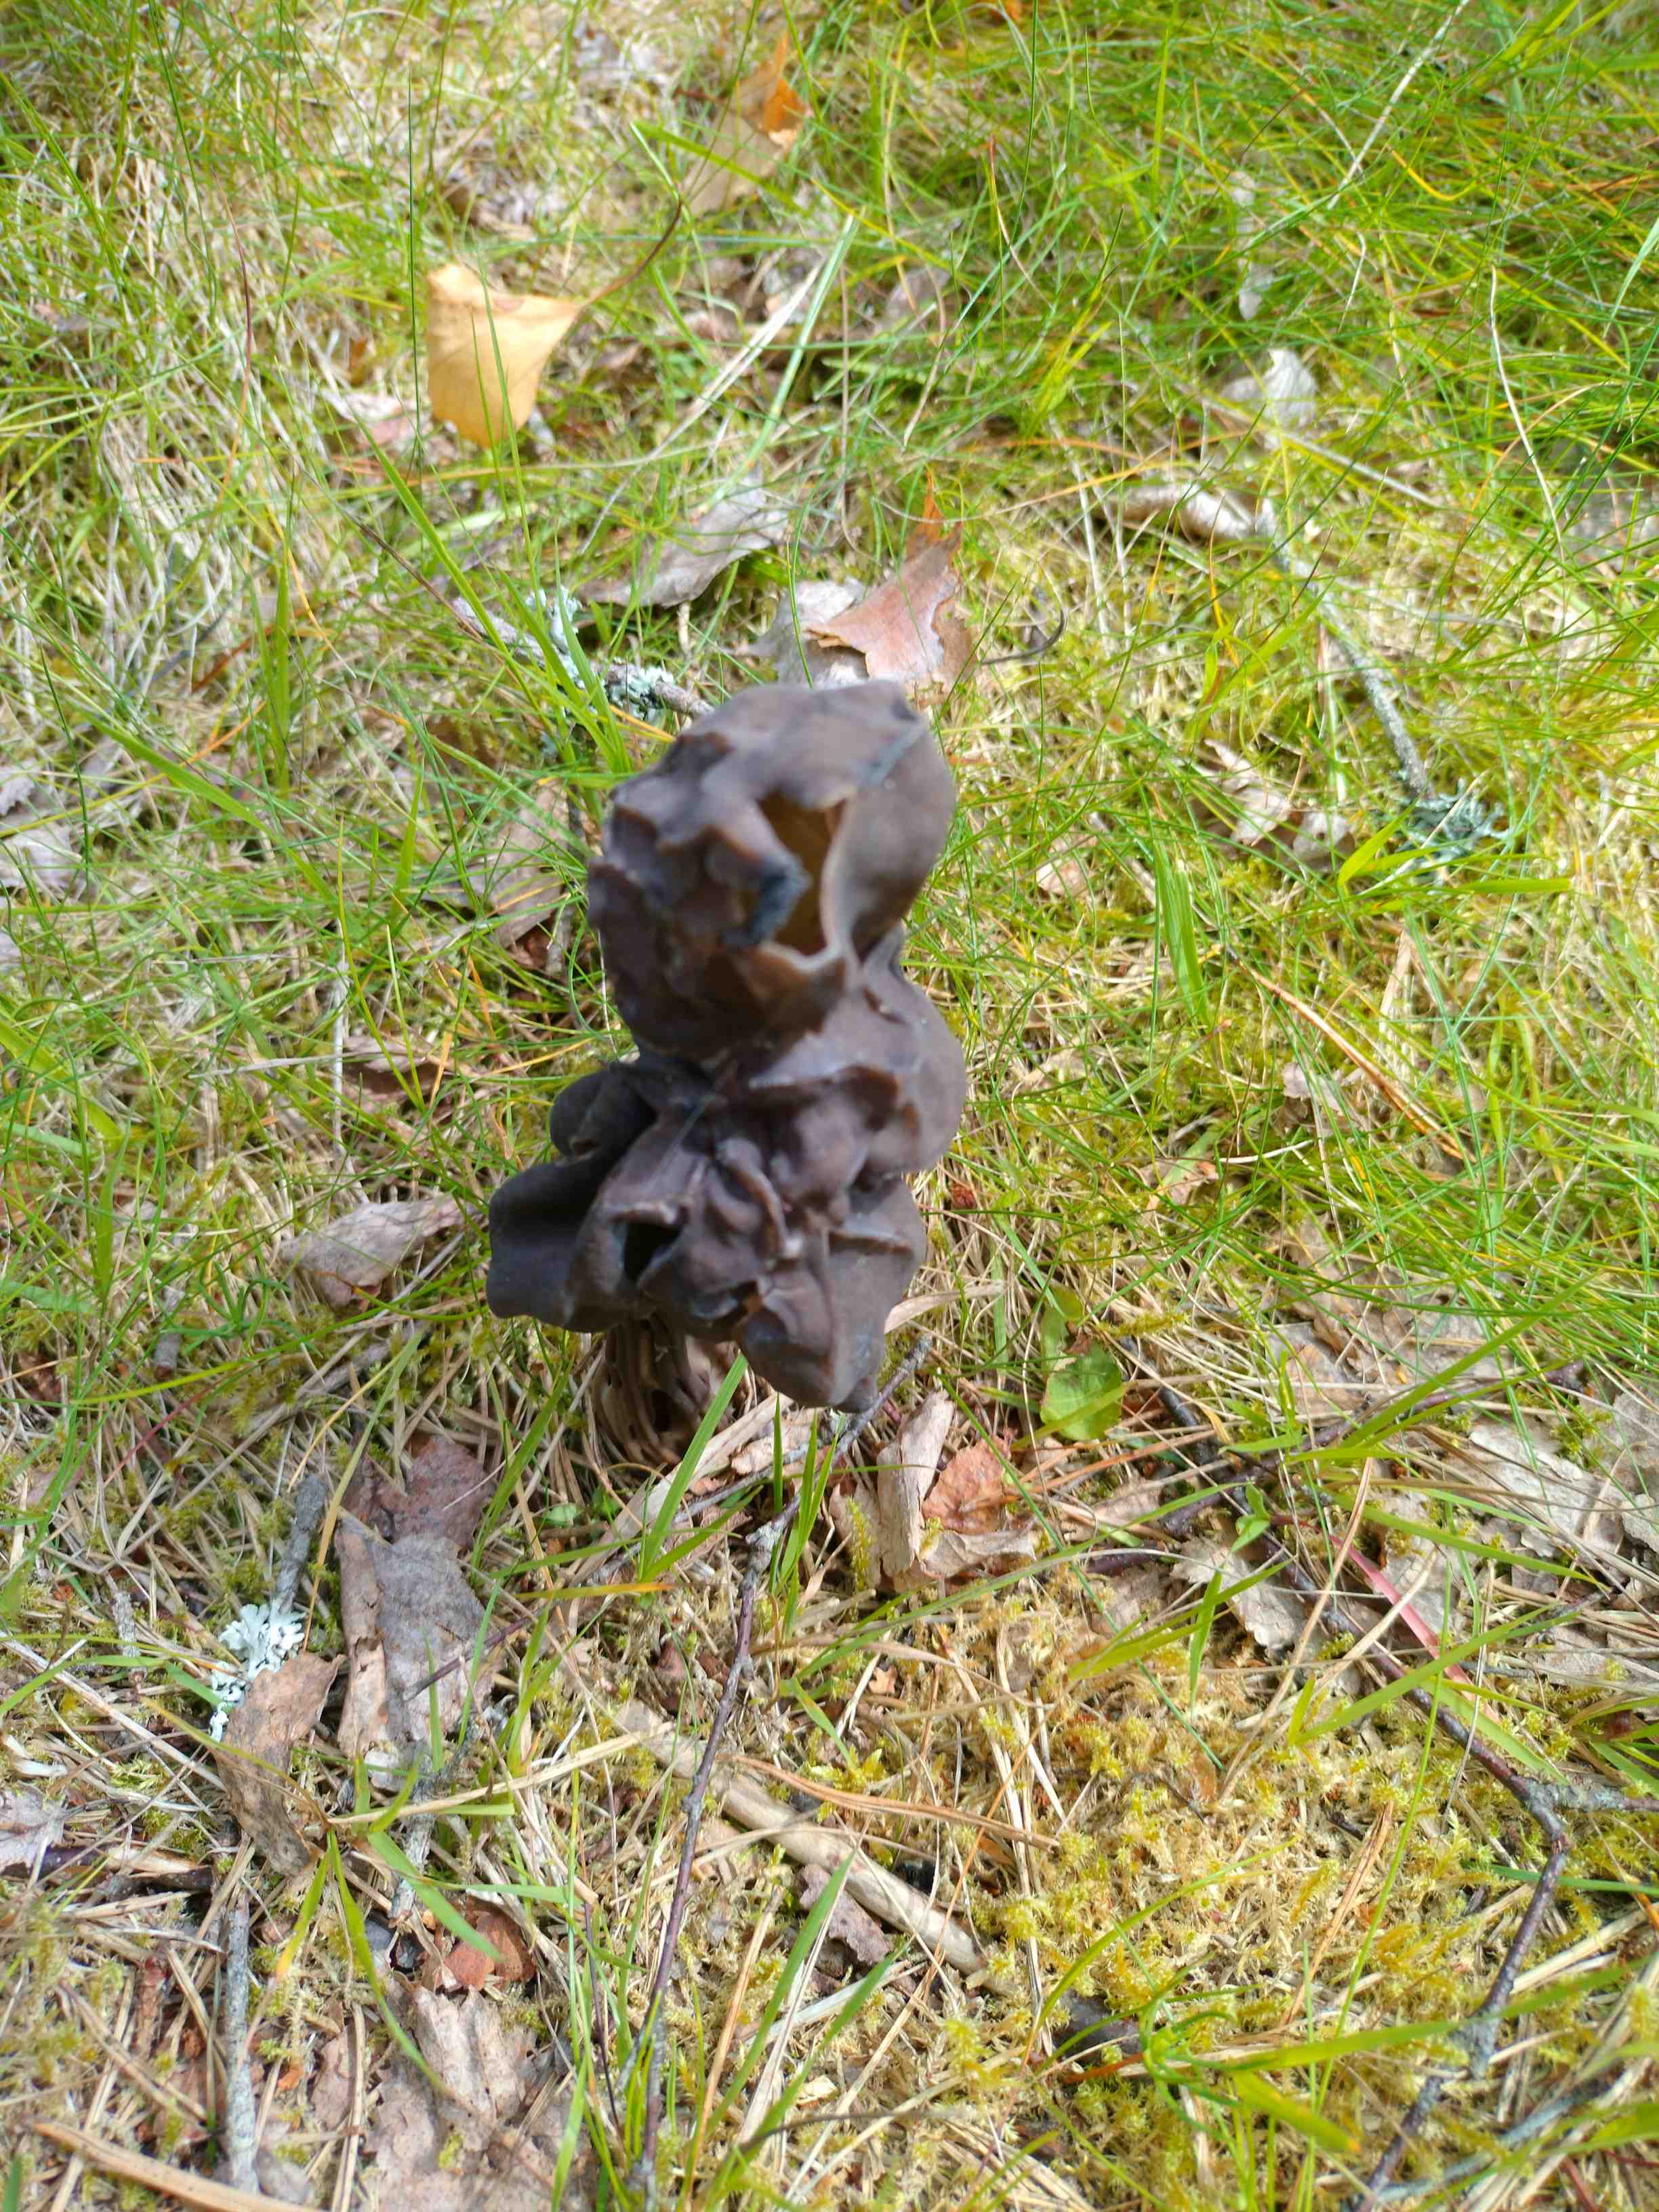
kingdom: Fungi
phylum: Ascomycota
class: Pezizomycetes
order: Pezizales
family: Helvellaceae
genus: Helvella
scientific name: Helvella lacunosa
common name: grubet foldhat
